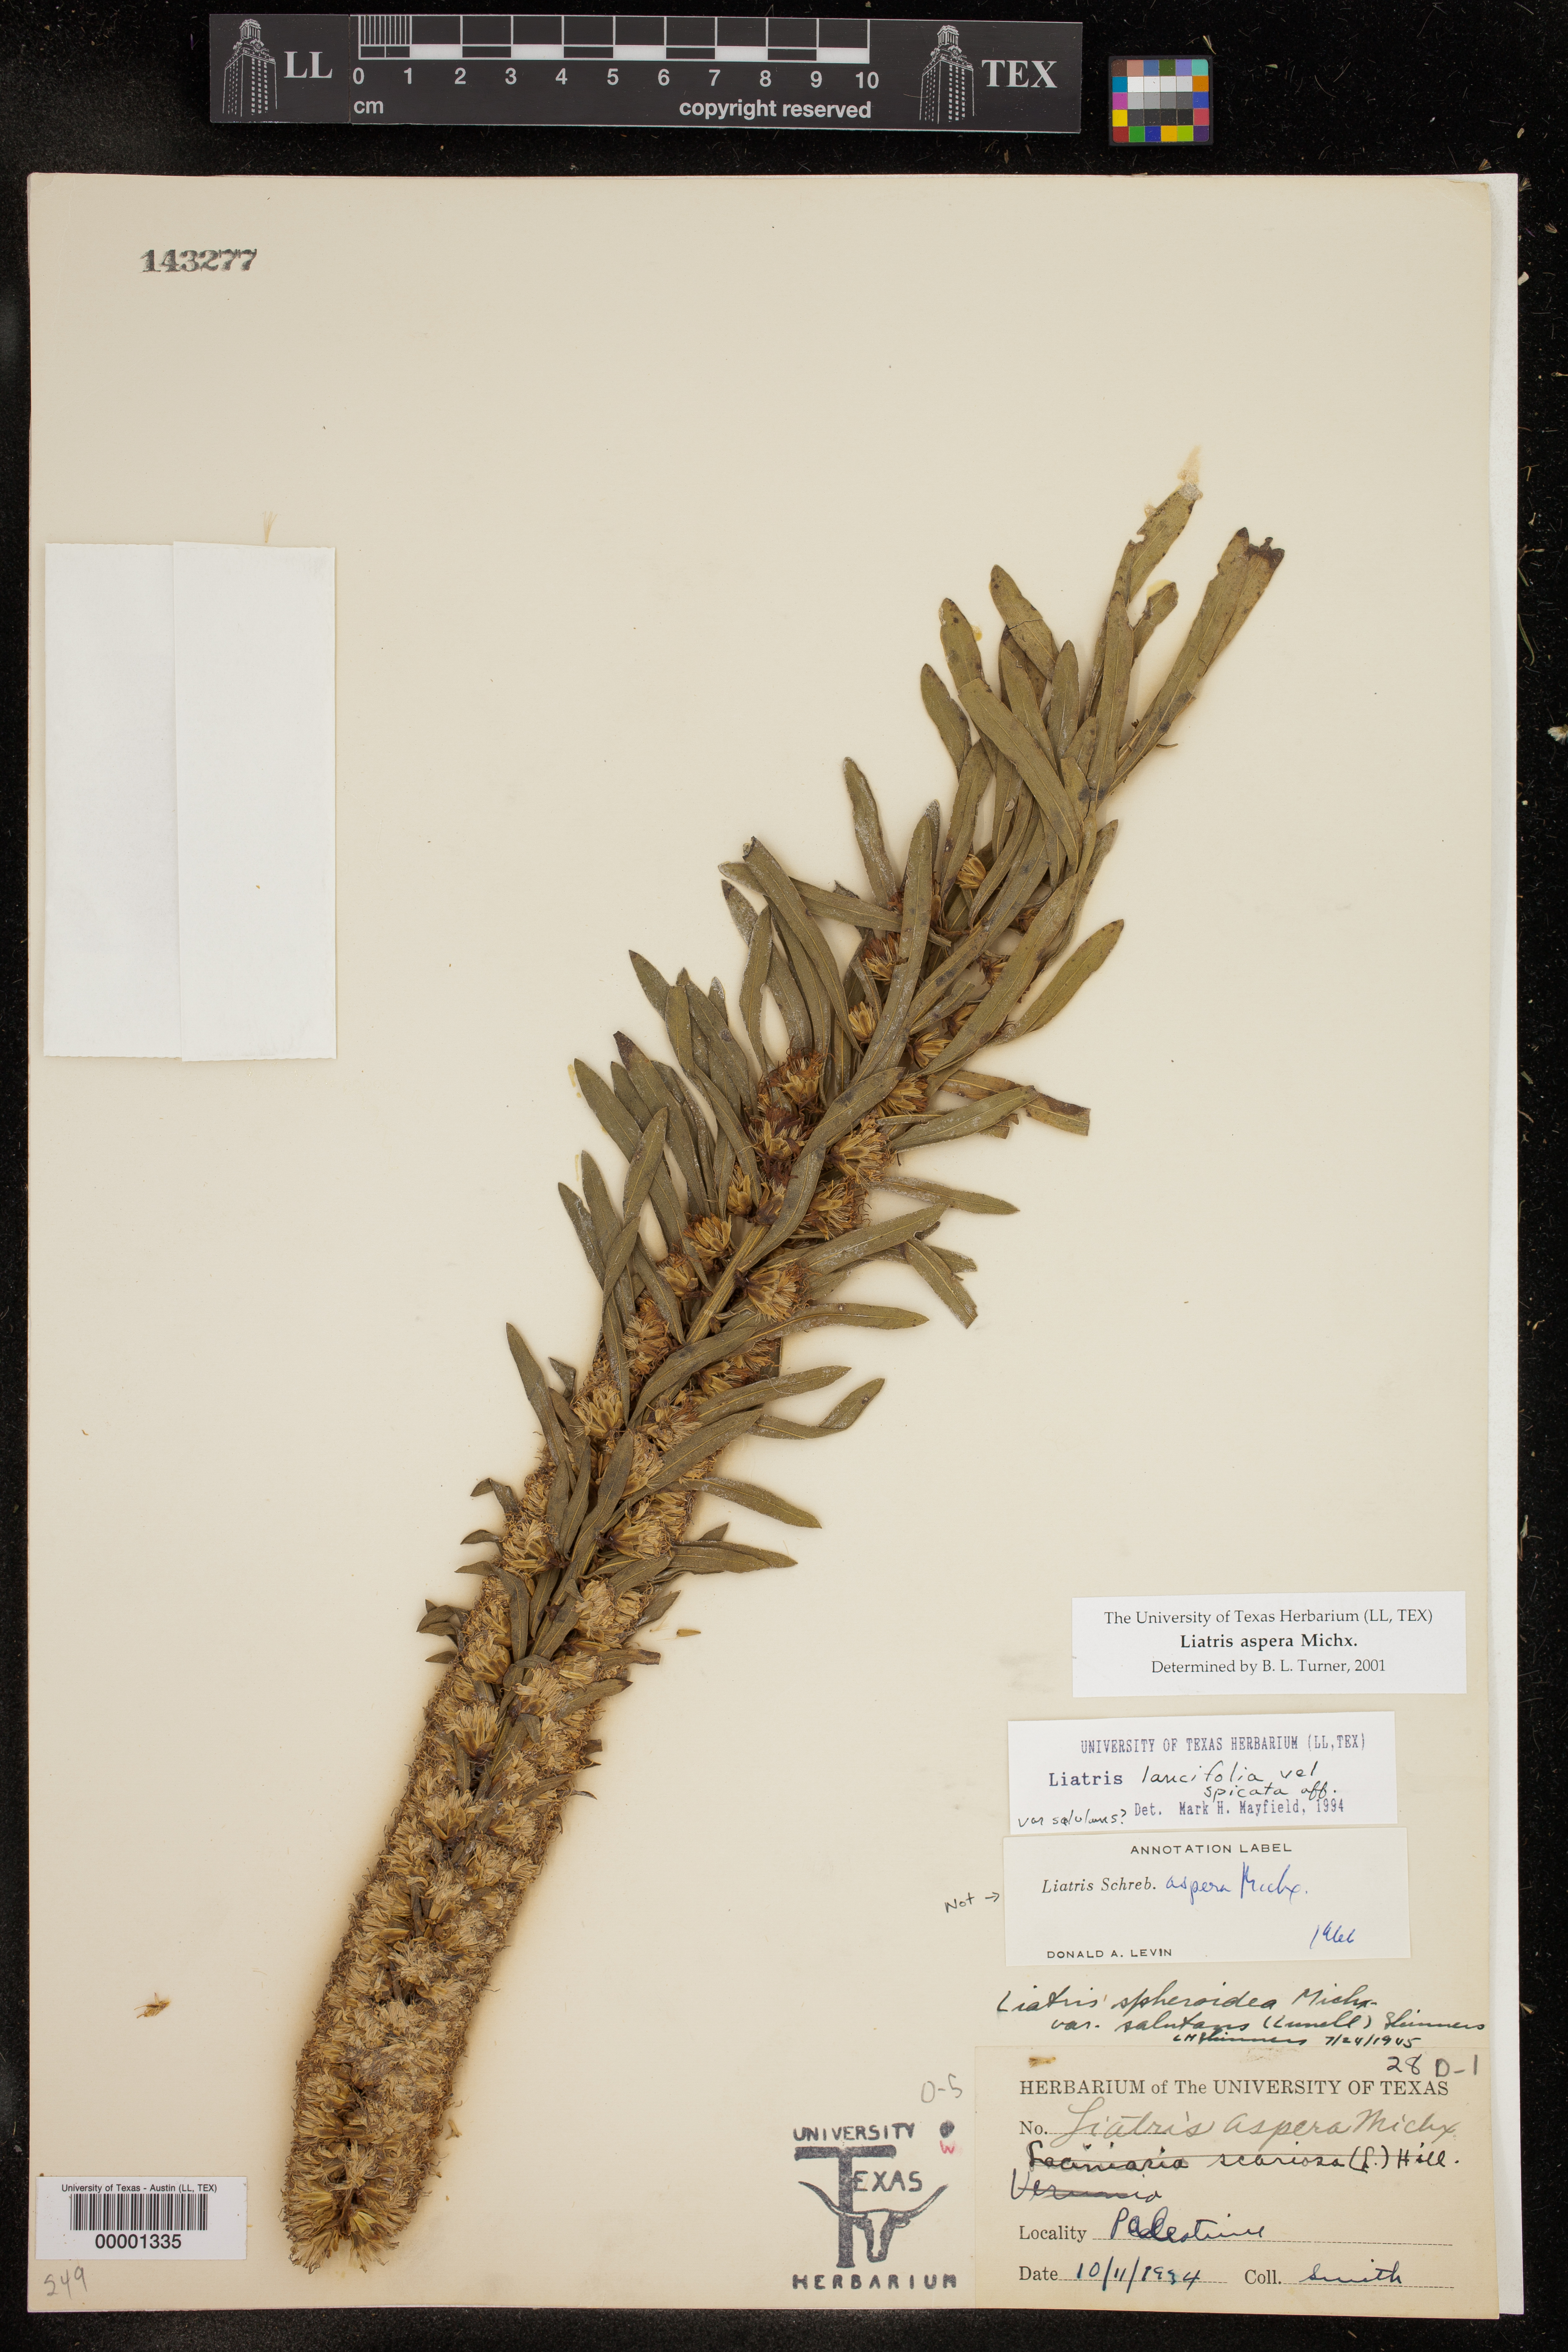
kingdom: Plantae
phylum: Tracheophyta
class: Magnoliopsida
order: Asterales
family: Asteraceae
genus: Liatris
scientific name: Liatris aspera
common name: Lacerate blazing-star
